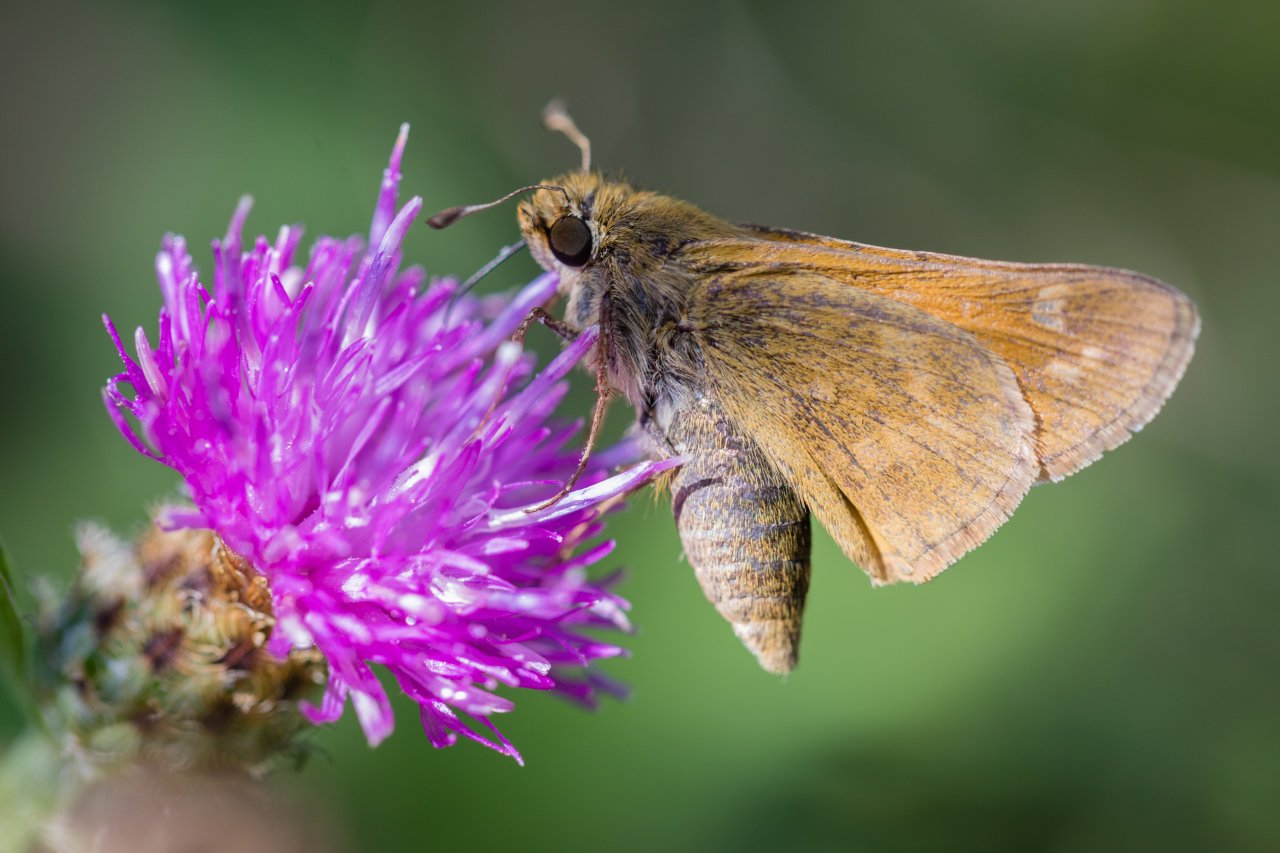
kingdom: Animalia
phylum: Arthropoda
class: Insecta
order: Lepidoptera
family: Hesperiidae
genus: Atalopedes
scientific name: Atalopedes campestris
